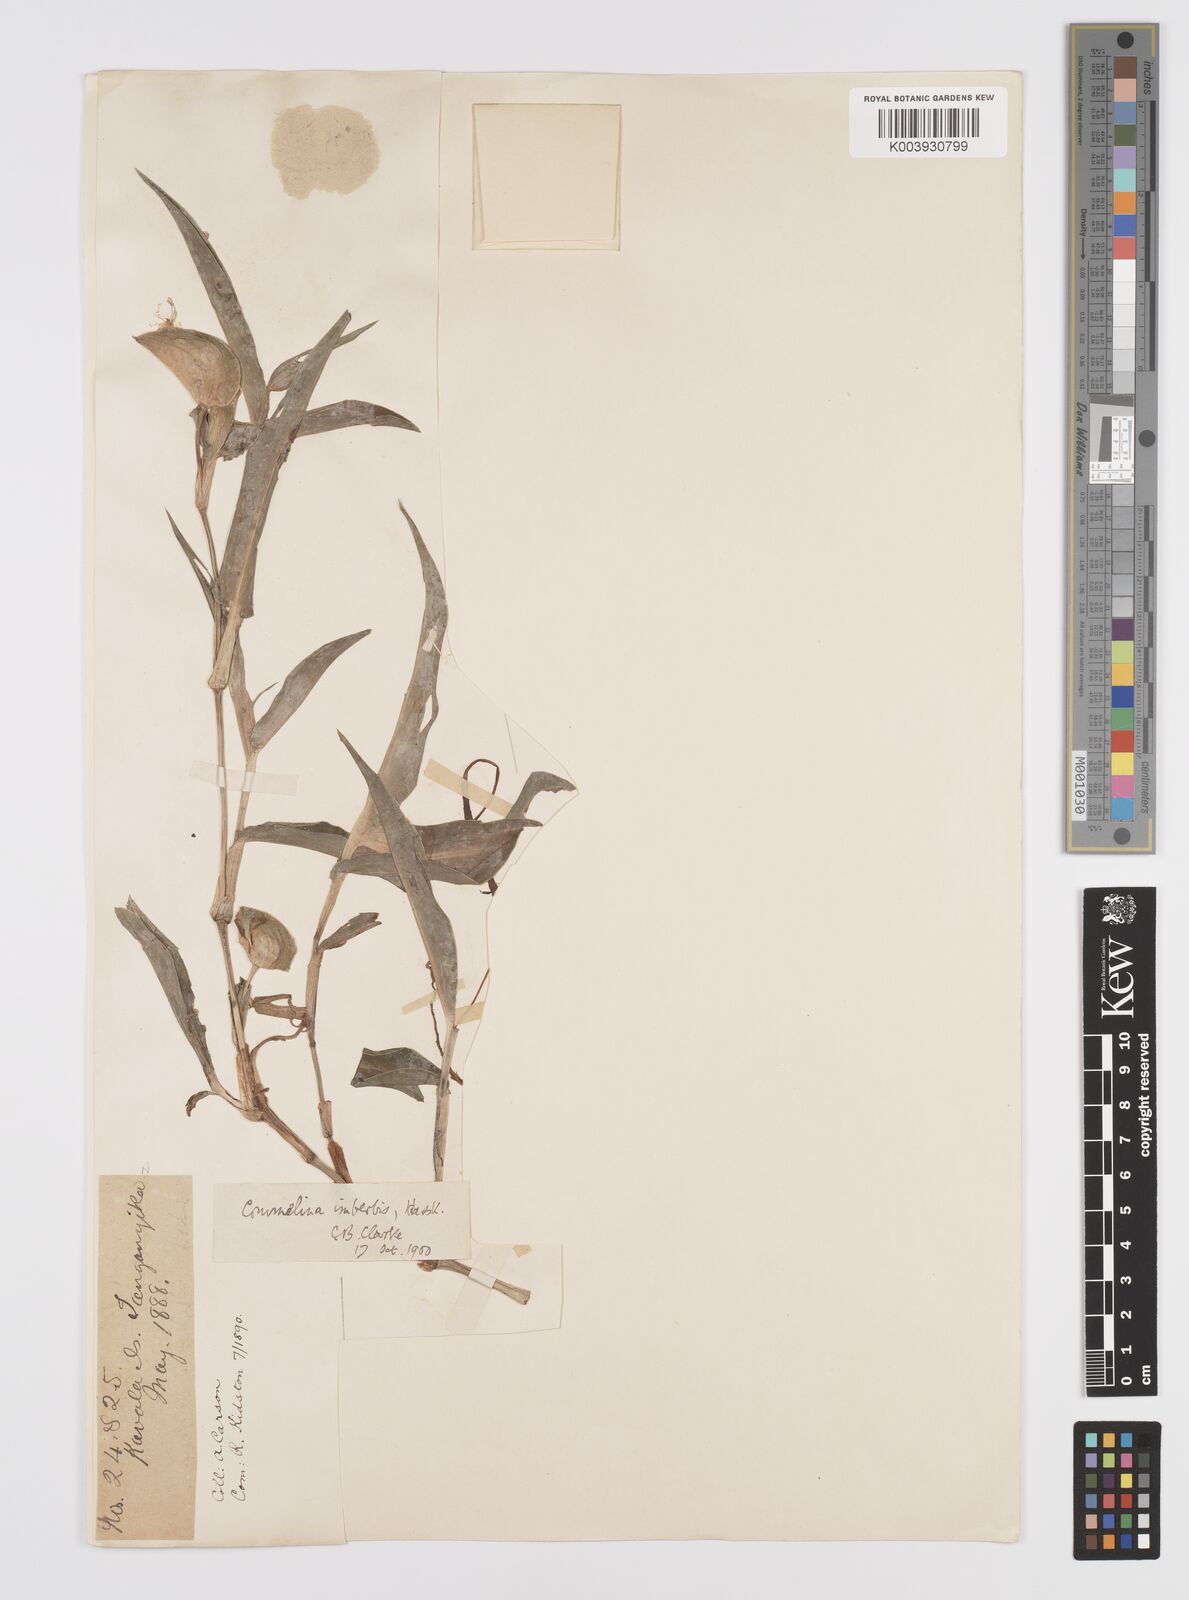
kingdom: Plantae
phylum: Tracheophyta
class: Liliopsida
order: Commelinales
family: Commelinaceae
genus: Commelina
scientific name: Commelina imberbis
